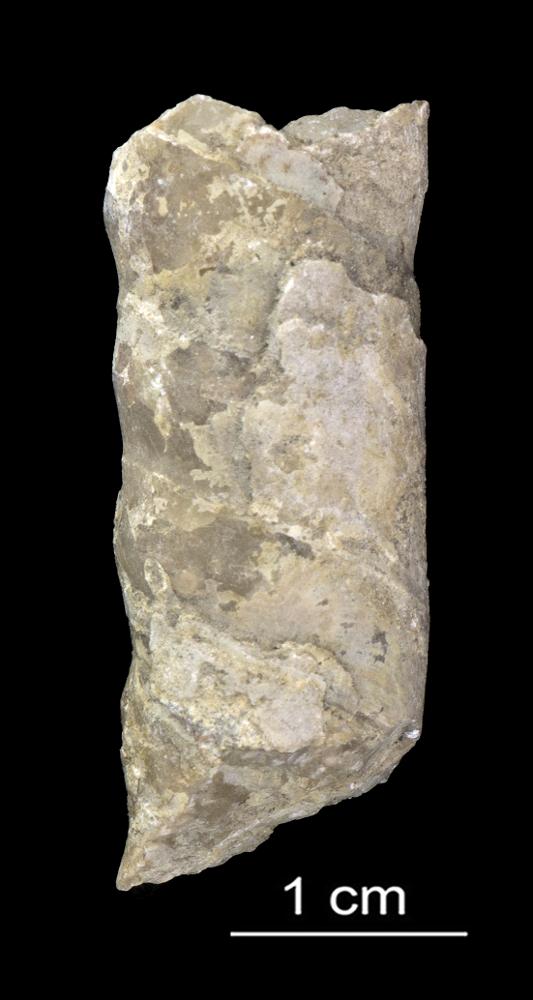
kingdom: Animalia
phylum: Mollusca
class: Cephalopoda
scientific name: Cephalopoda
